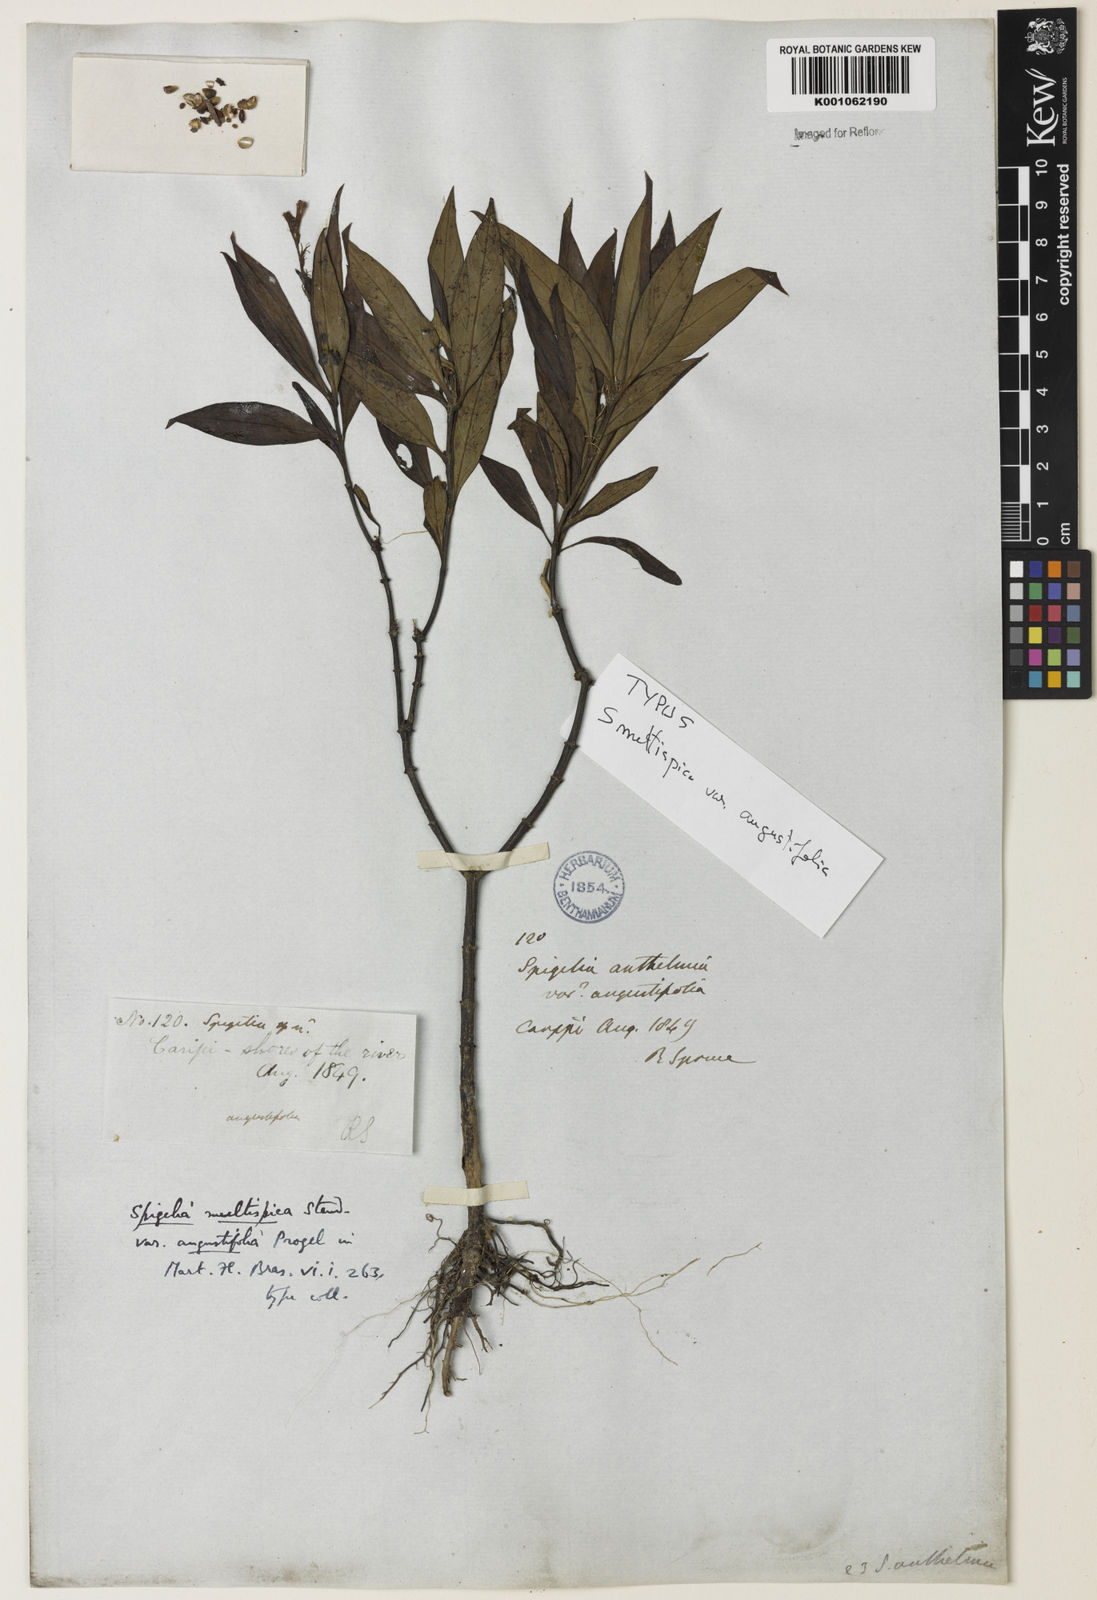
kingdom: Plantae
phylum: Tracheophyta
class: Magnoliopsida
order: Gentianales
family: Loganiaceae
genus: Spigelia
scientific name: Spigelia spruceana
